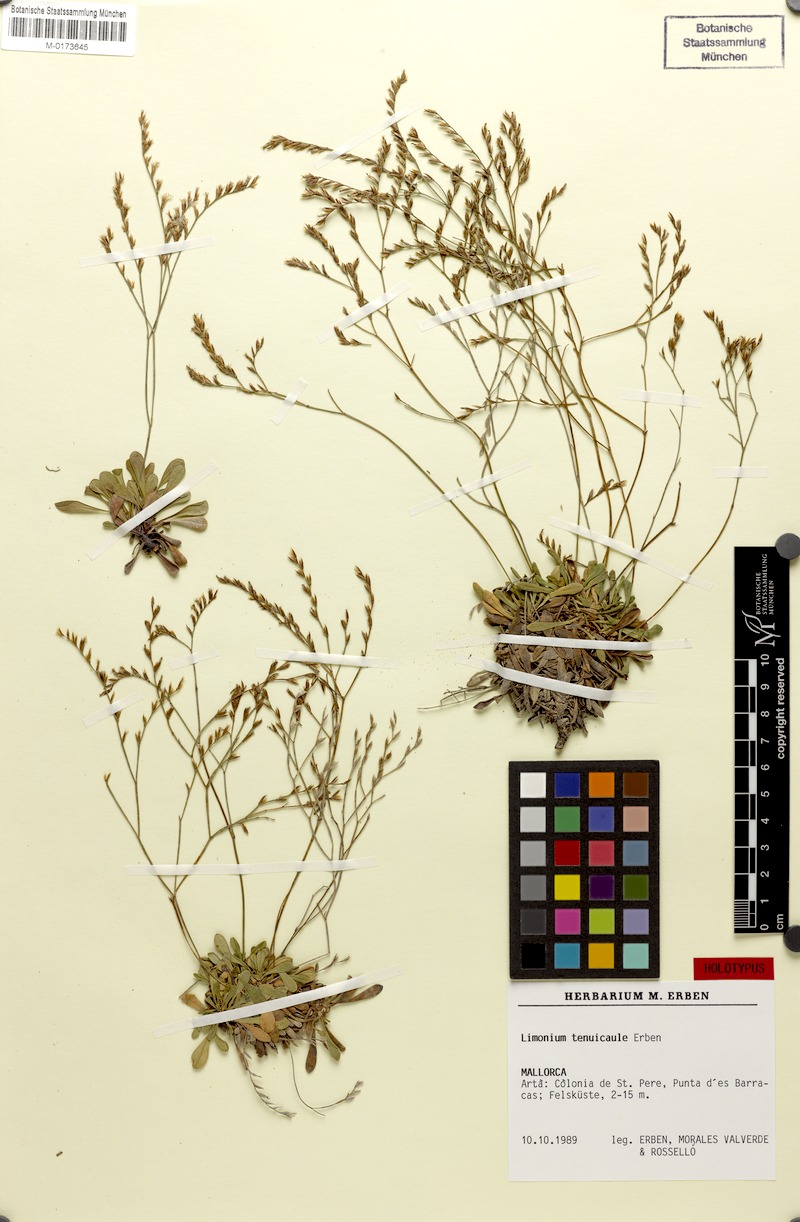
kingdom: Plantae
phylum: Tracheophyta
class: Magnoliopsida
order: Caryophyllales
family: Plumbaginaceae
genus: Limonium
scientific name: Limonium tenuicaule
